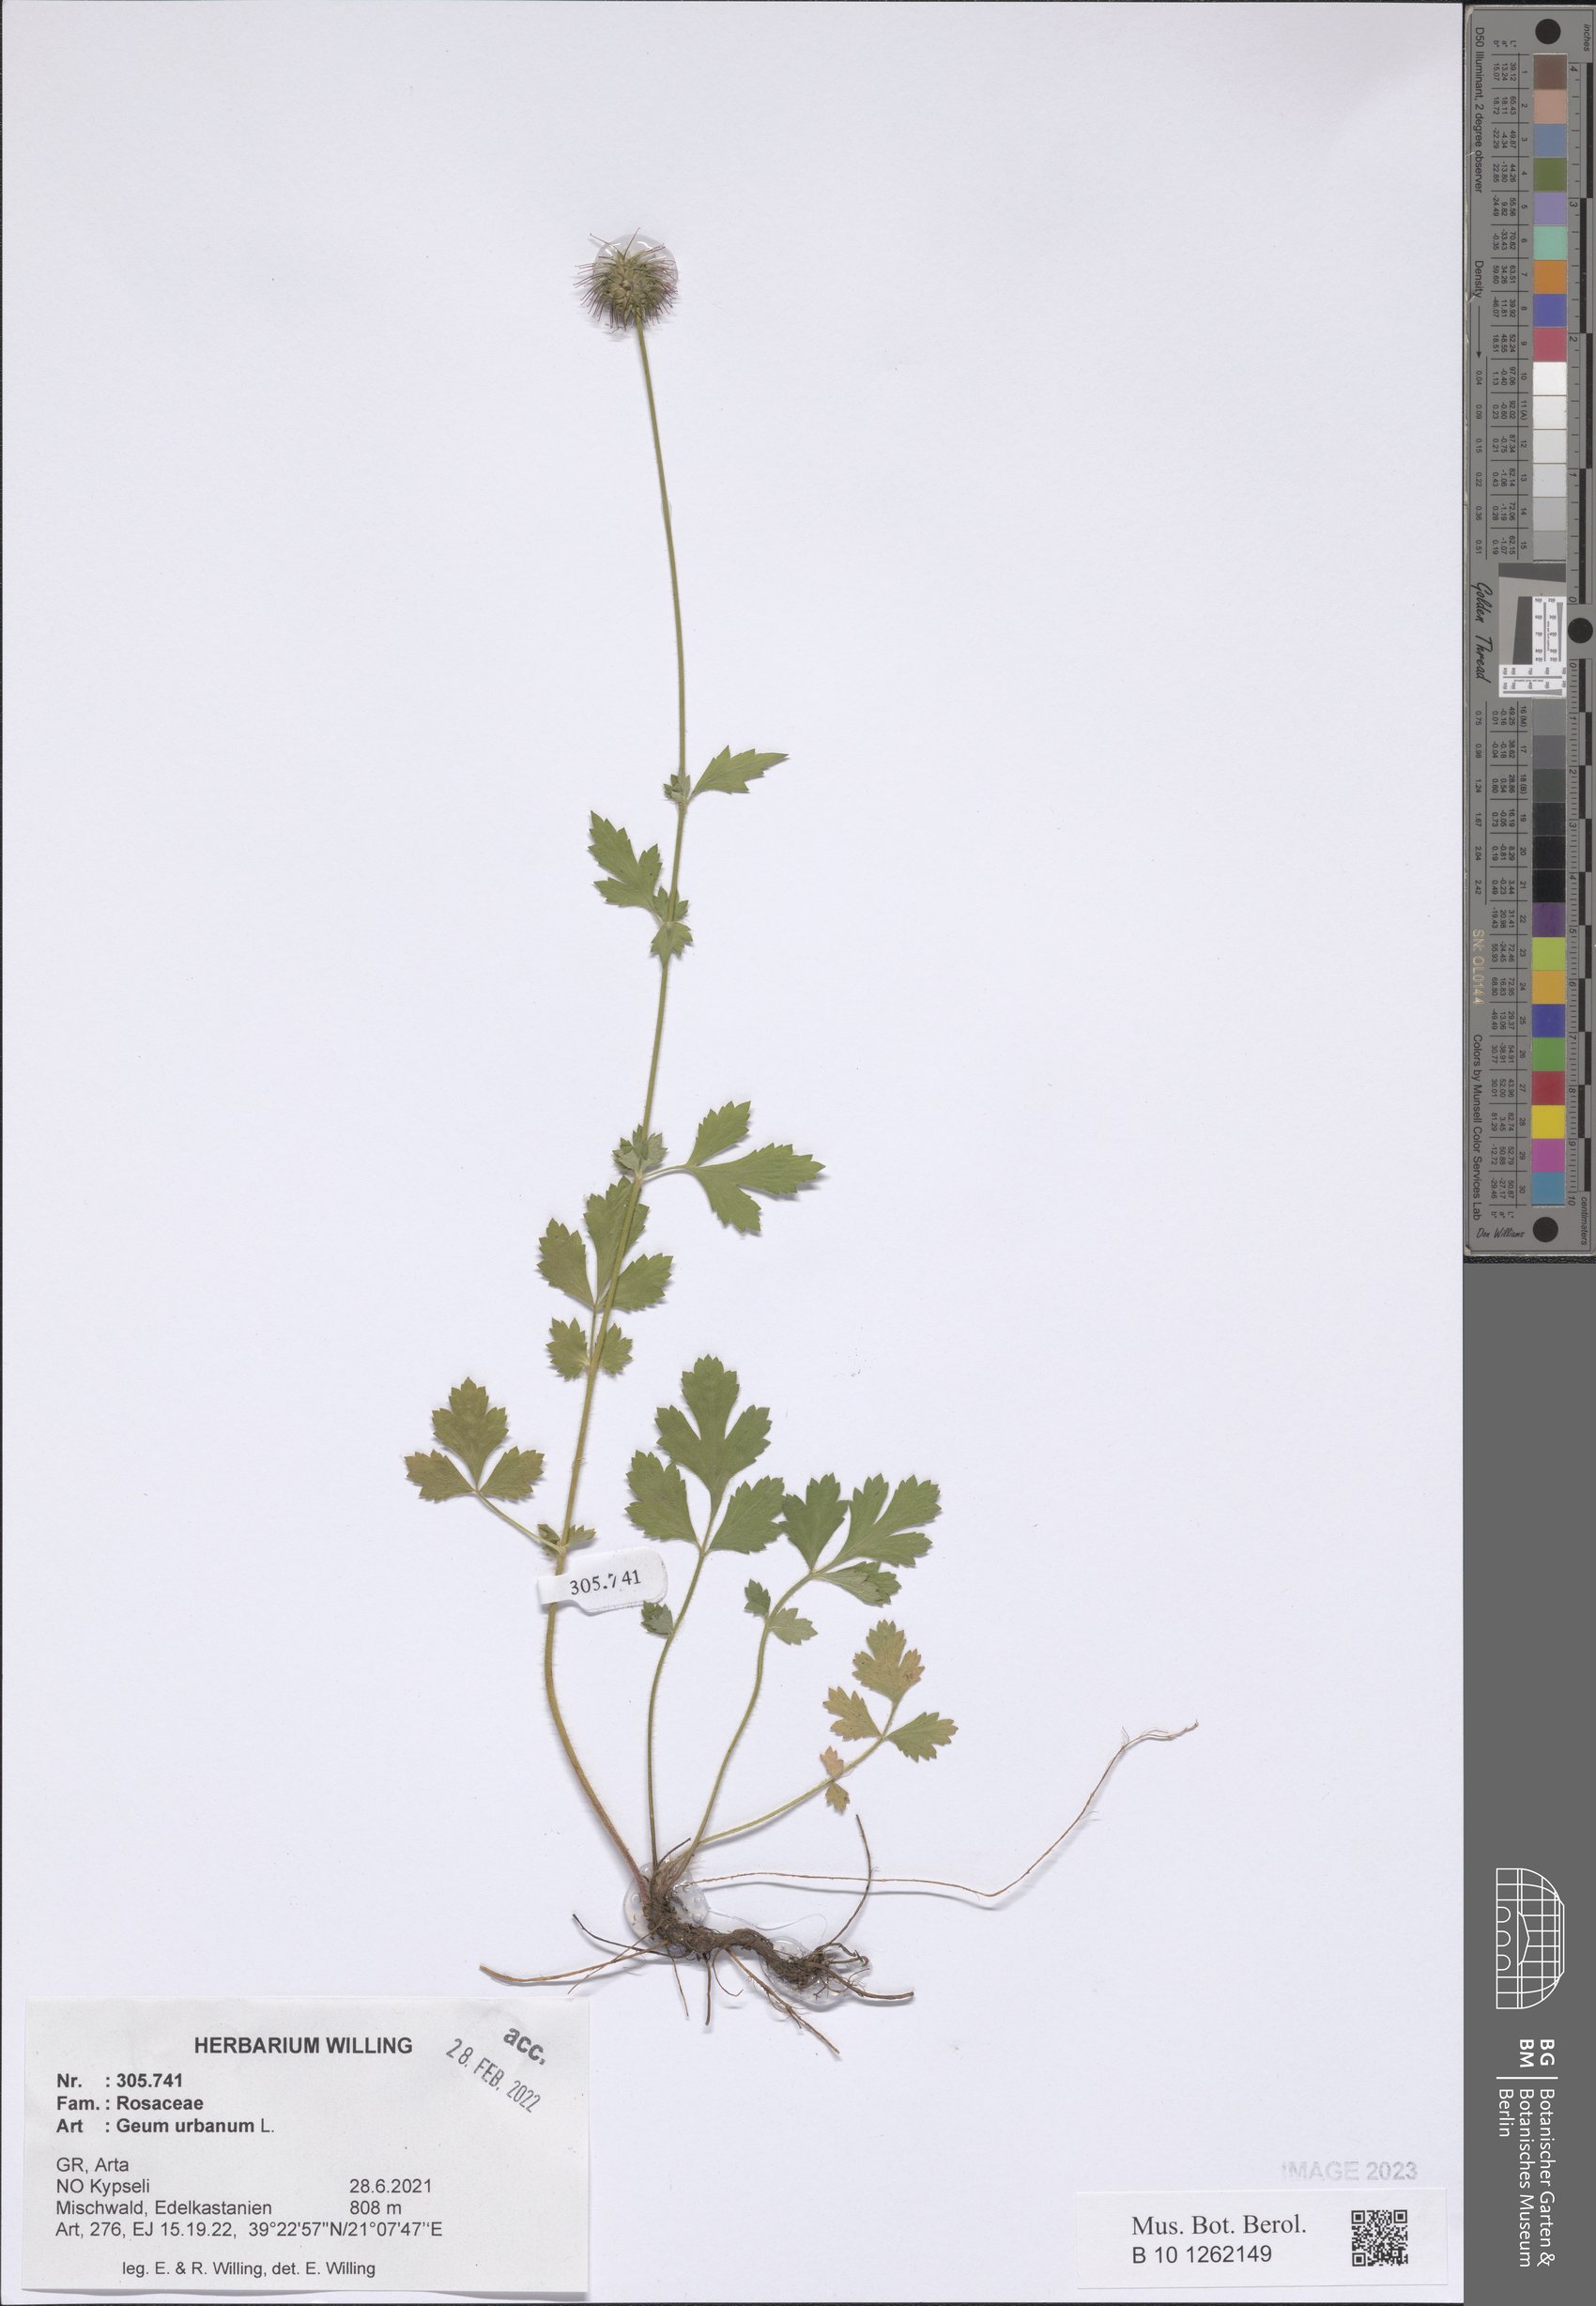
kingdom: Plantae
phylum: Tracheophyta
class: Magnoliopsida
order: Rosales
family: Rosaceae
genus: Geum
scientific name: Geum urbanum
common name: Wood avens
